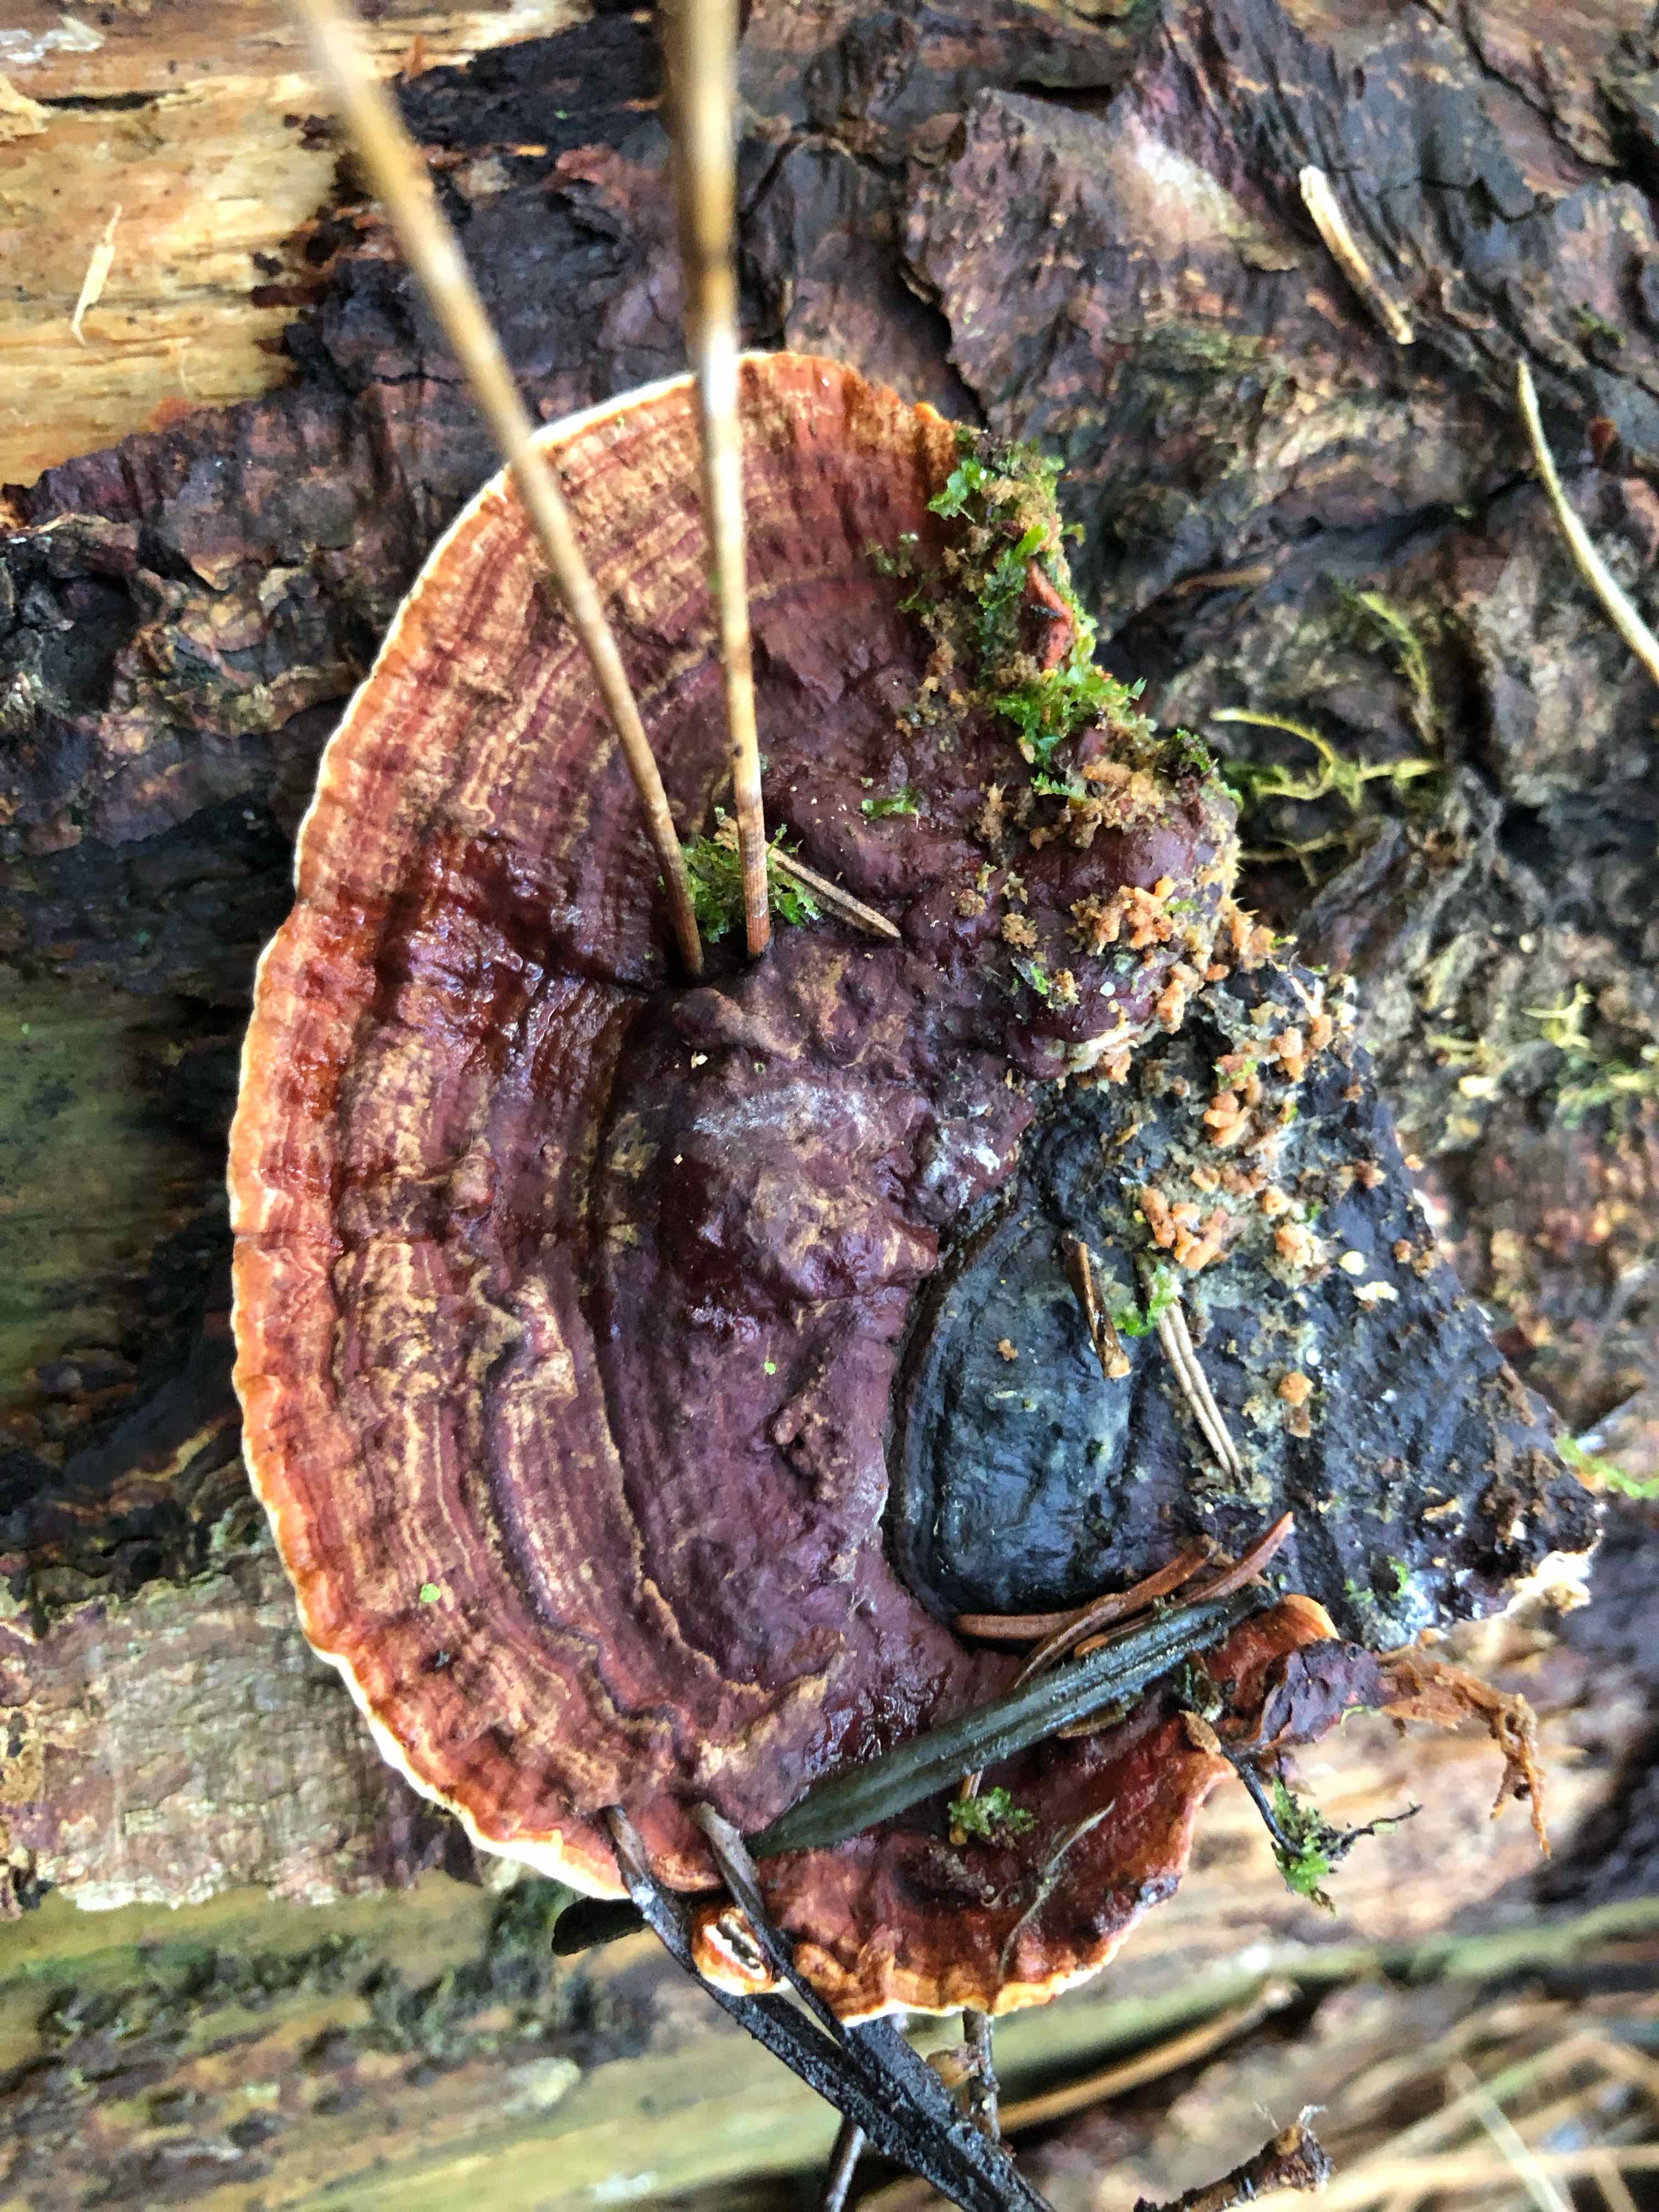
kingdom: Fungi
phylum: Basidiomycota
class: Agaricomycetes
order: Russulales
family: Bondarzewiaceae
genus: Heterobasidion
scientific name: Heterobasidion annosum
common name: almindelig rodfordærver
